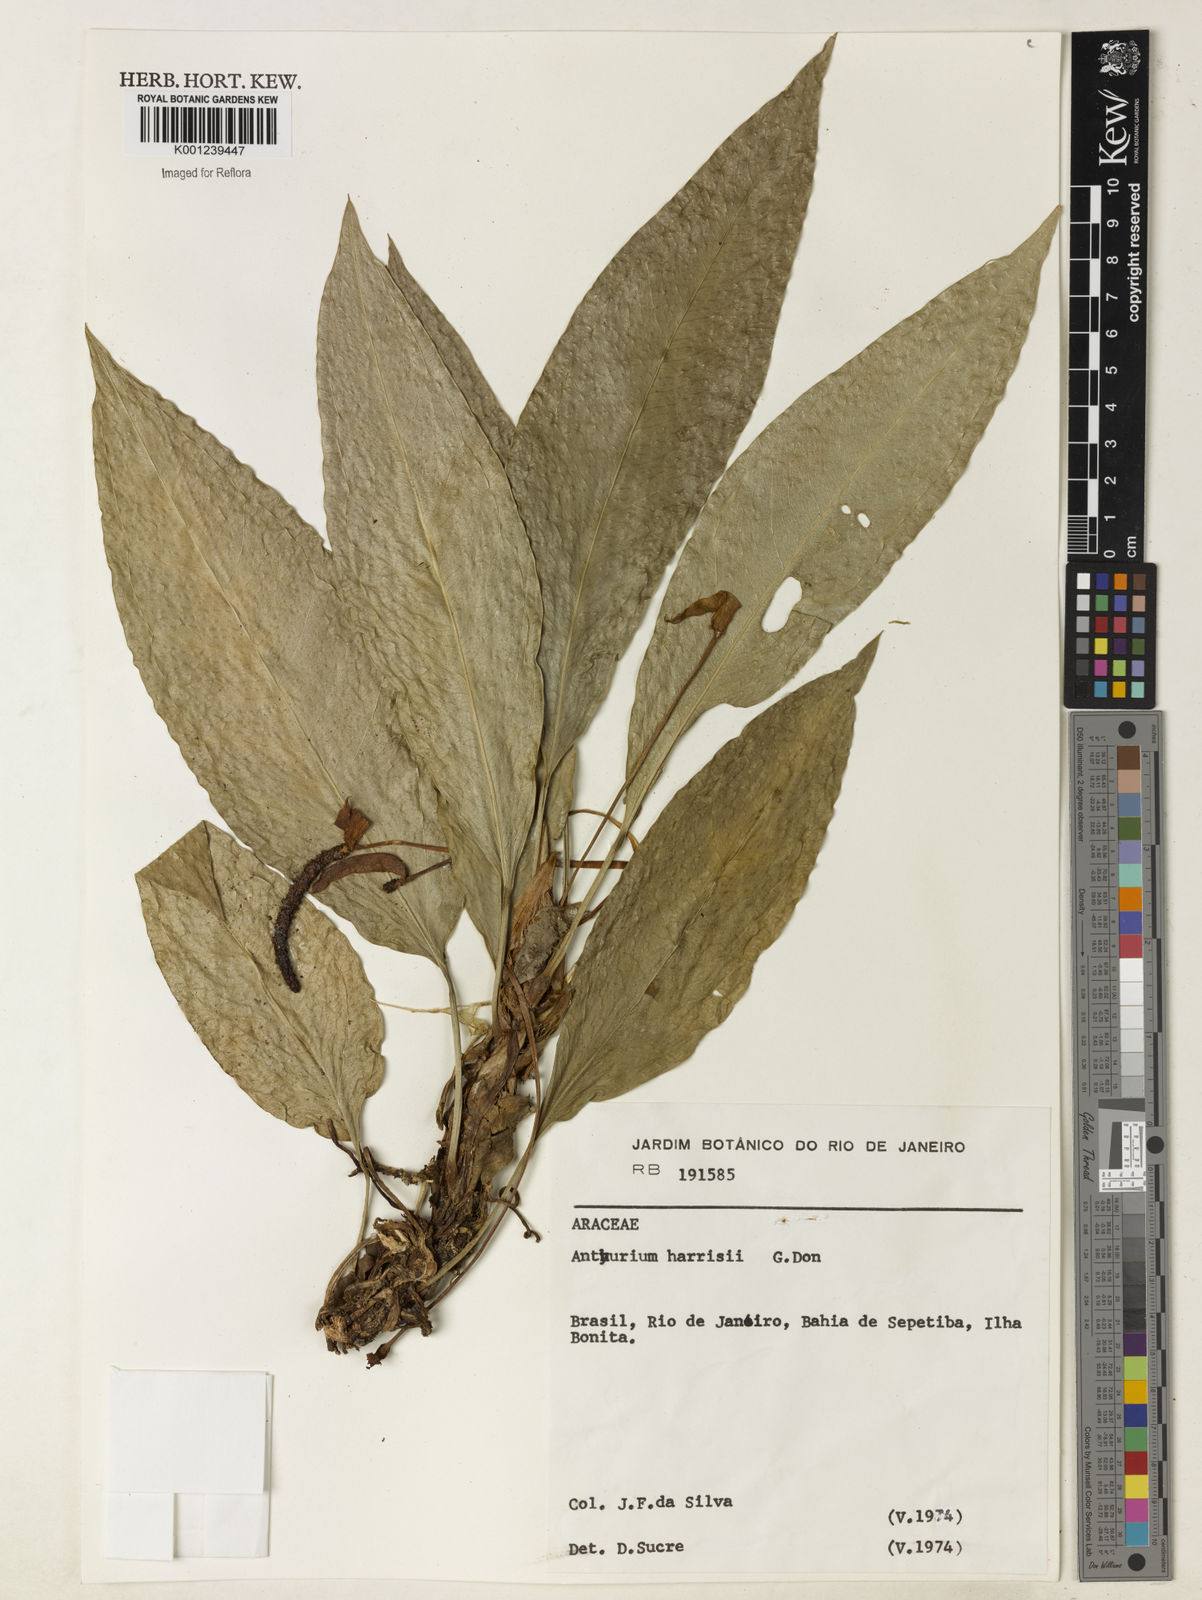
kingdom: Plantae
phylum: Tracheophyta
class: Liliopsida
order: Alismatales
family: Araceae
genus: Anthurium
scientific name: Anthurium harrisii
